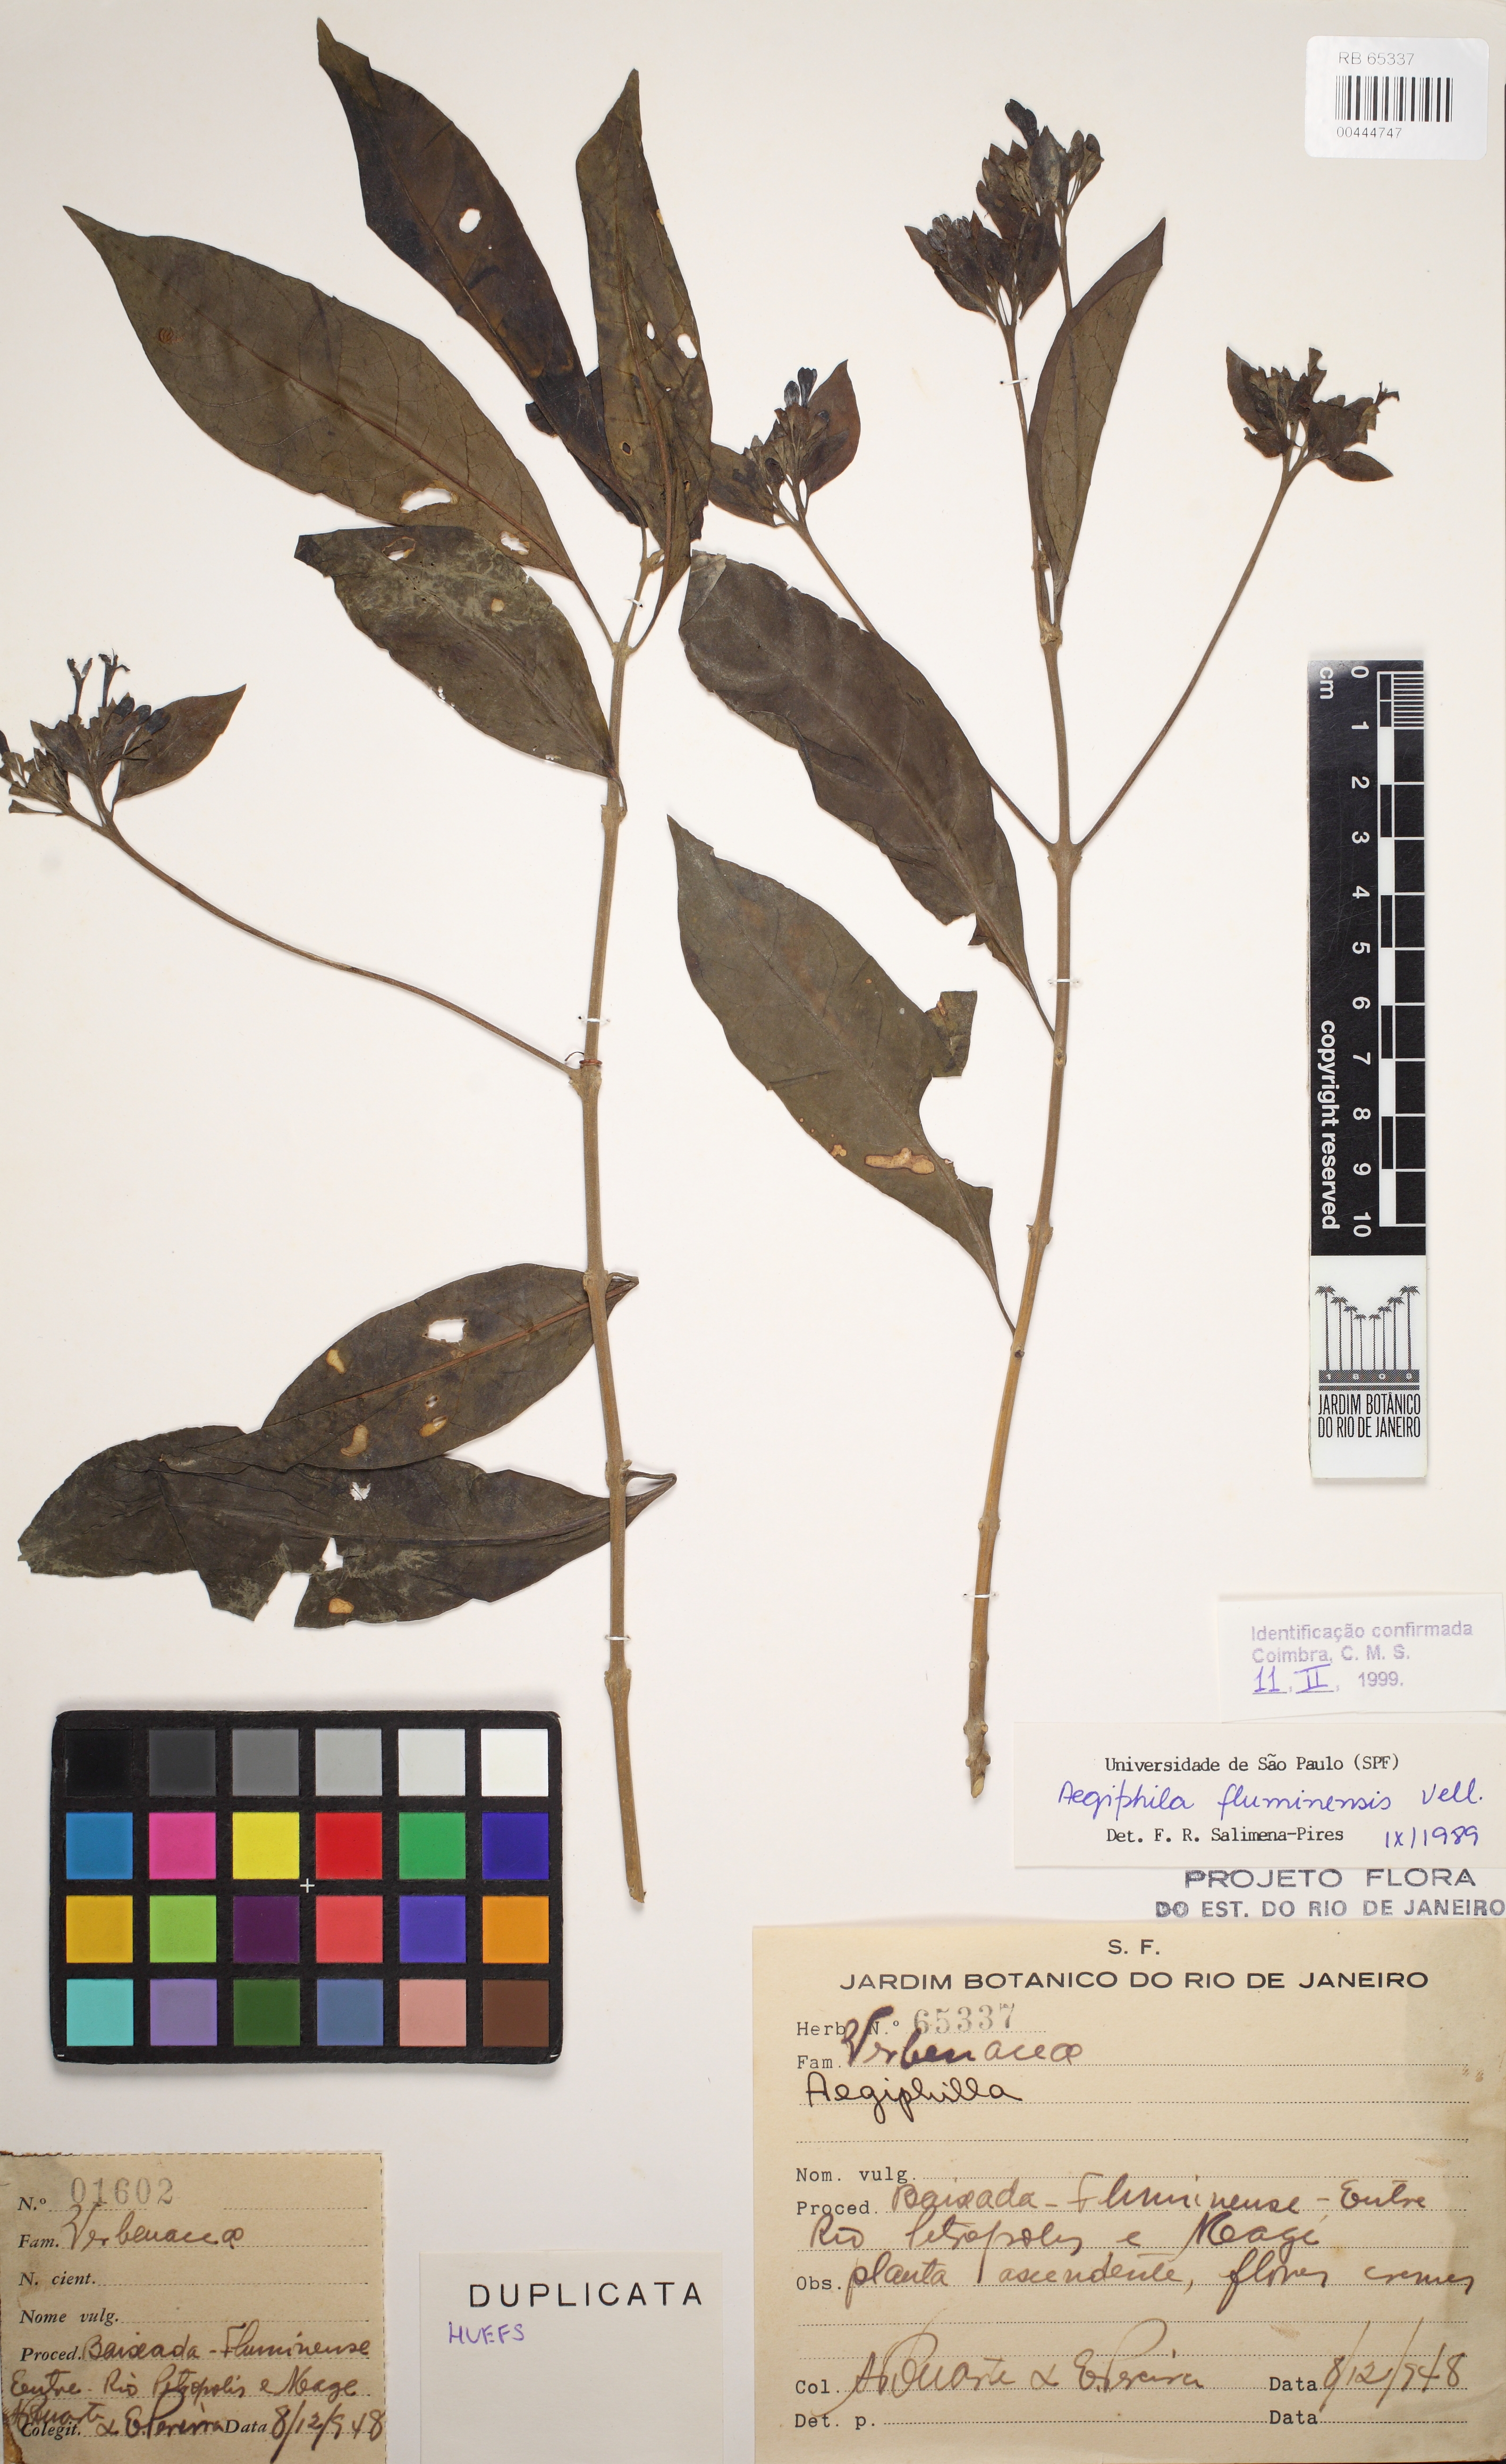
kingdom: Plantae
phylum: Tracheophyta
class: Magnoliopsida
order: Lamiales
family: Lamiaceae
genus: Aegiphila
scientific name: Aegiphila fluminensis
